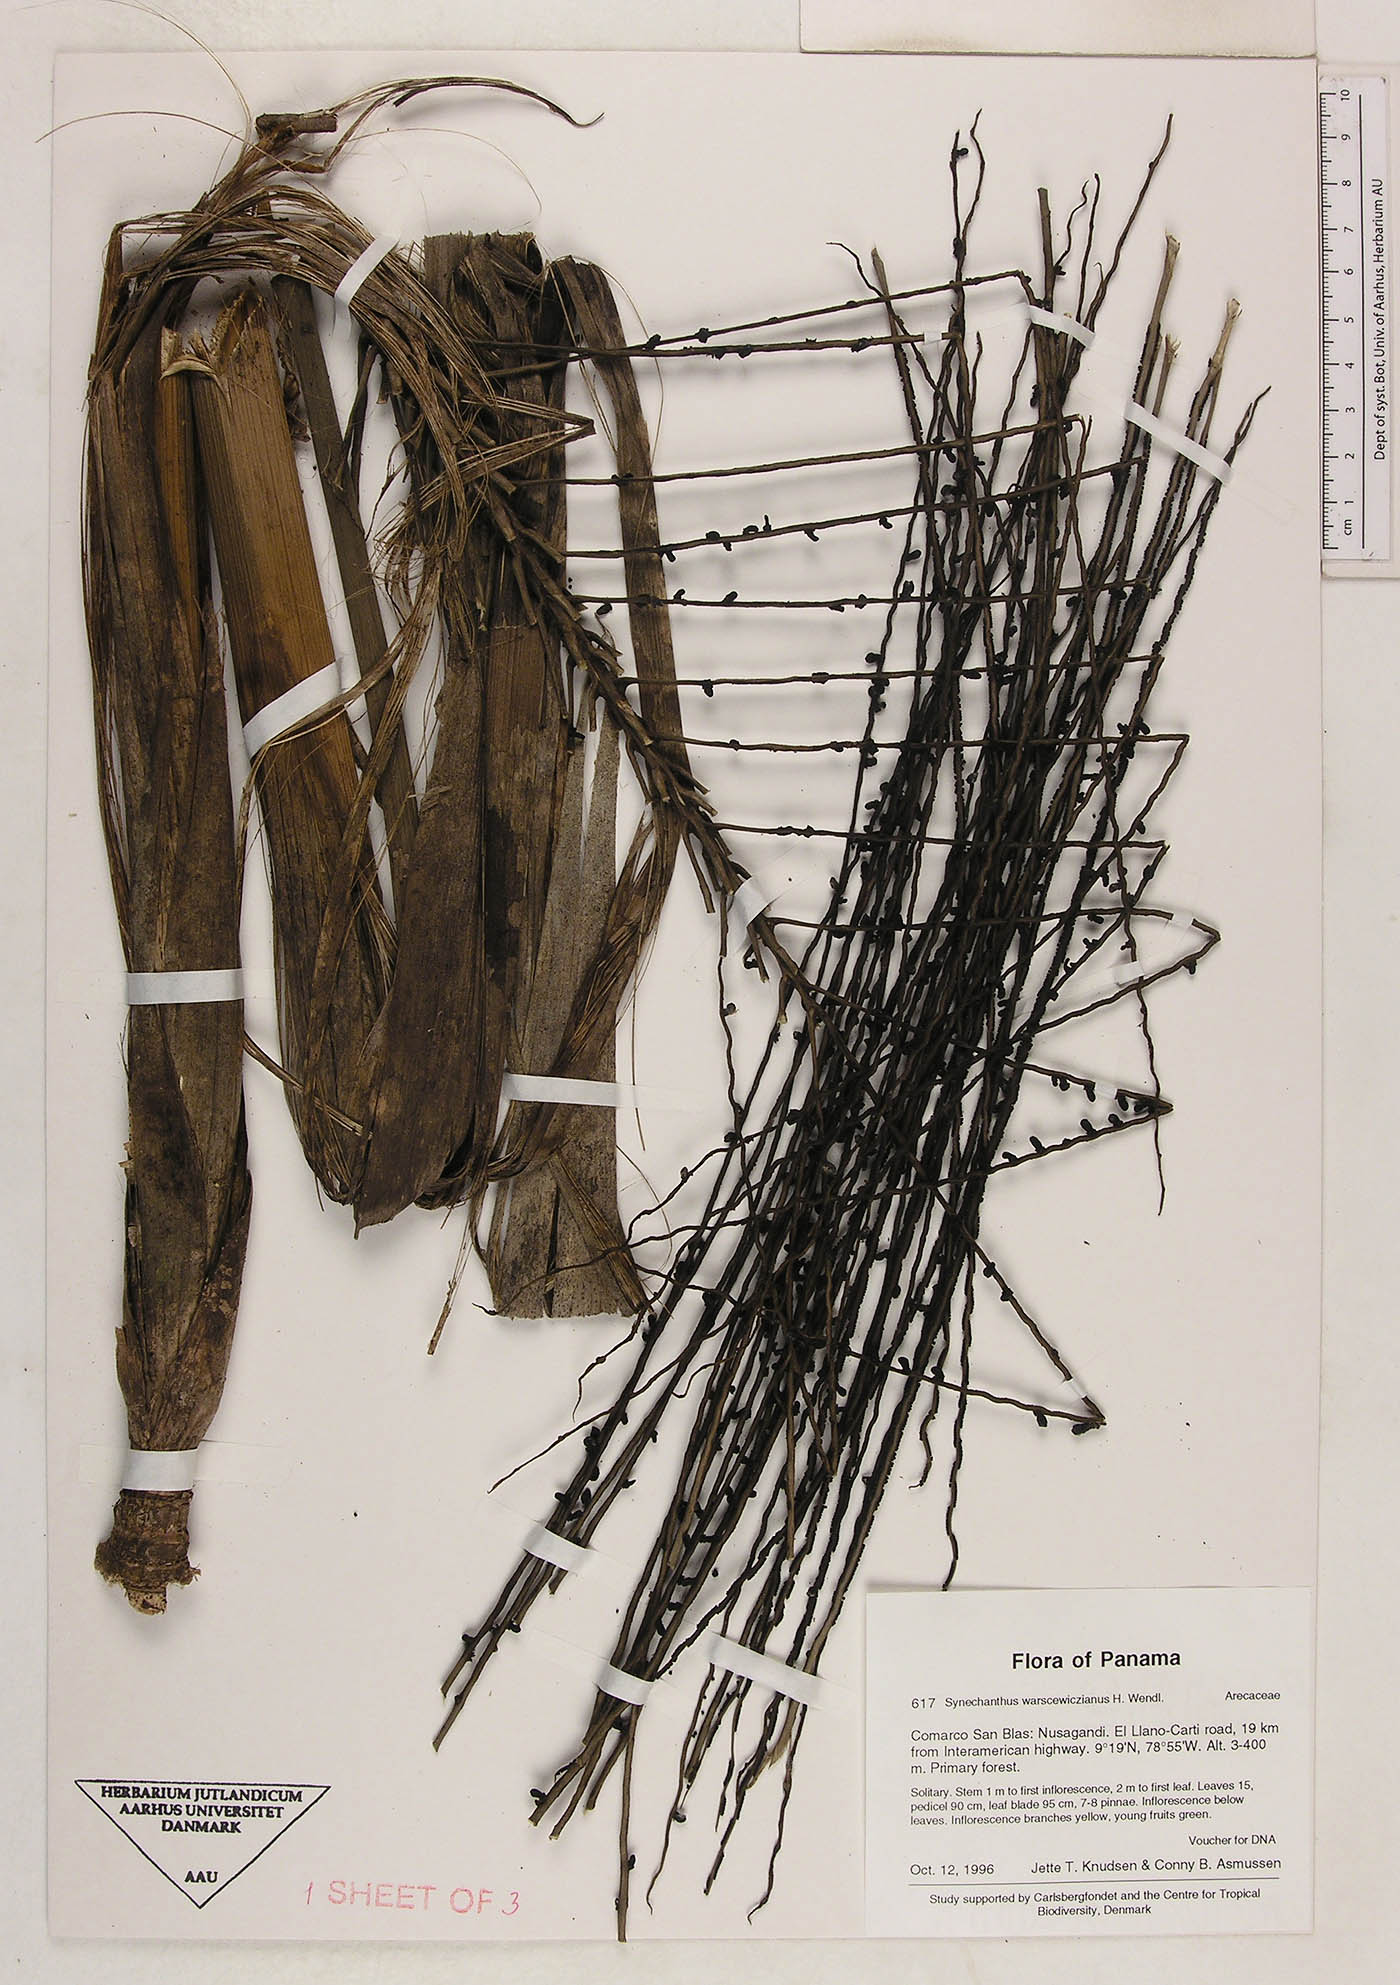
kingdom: Plantae
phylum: Tracheophyta
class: Liliopsida
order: Arecales
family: Arecaceae
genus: Synechanthus
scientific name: Synechanthus warscewiczianus
